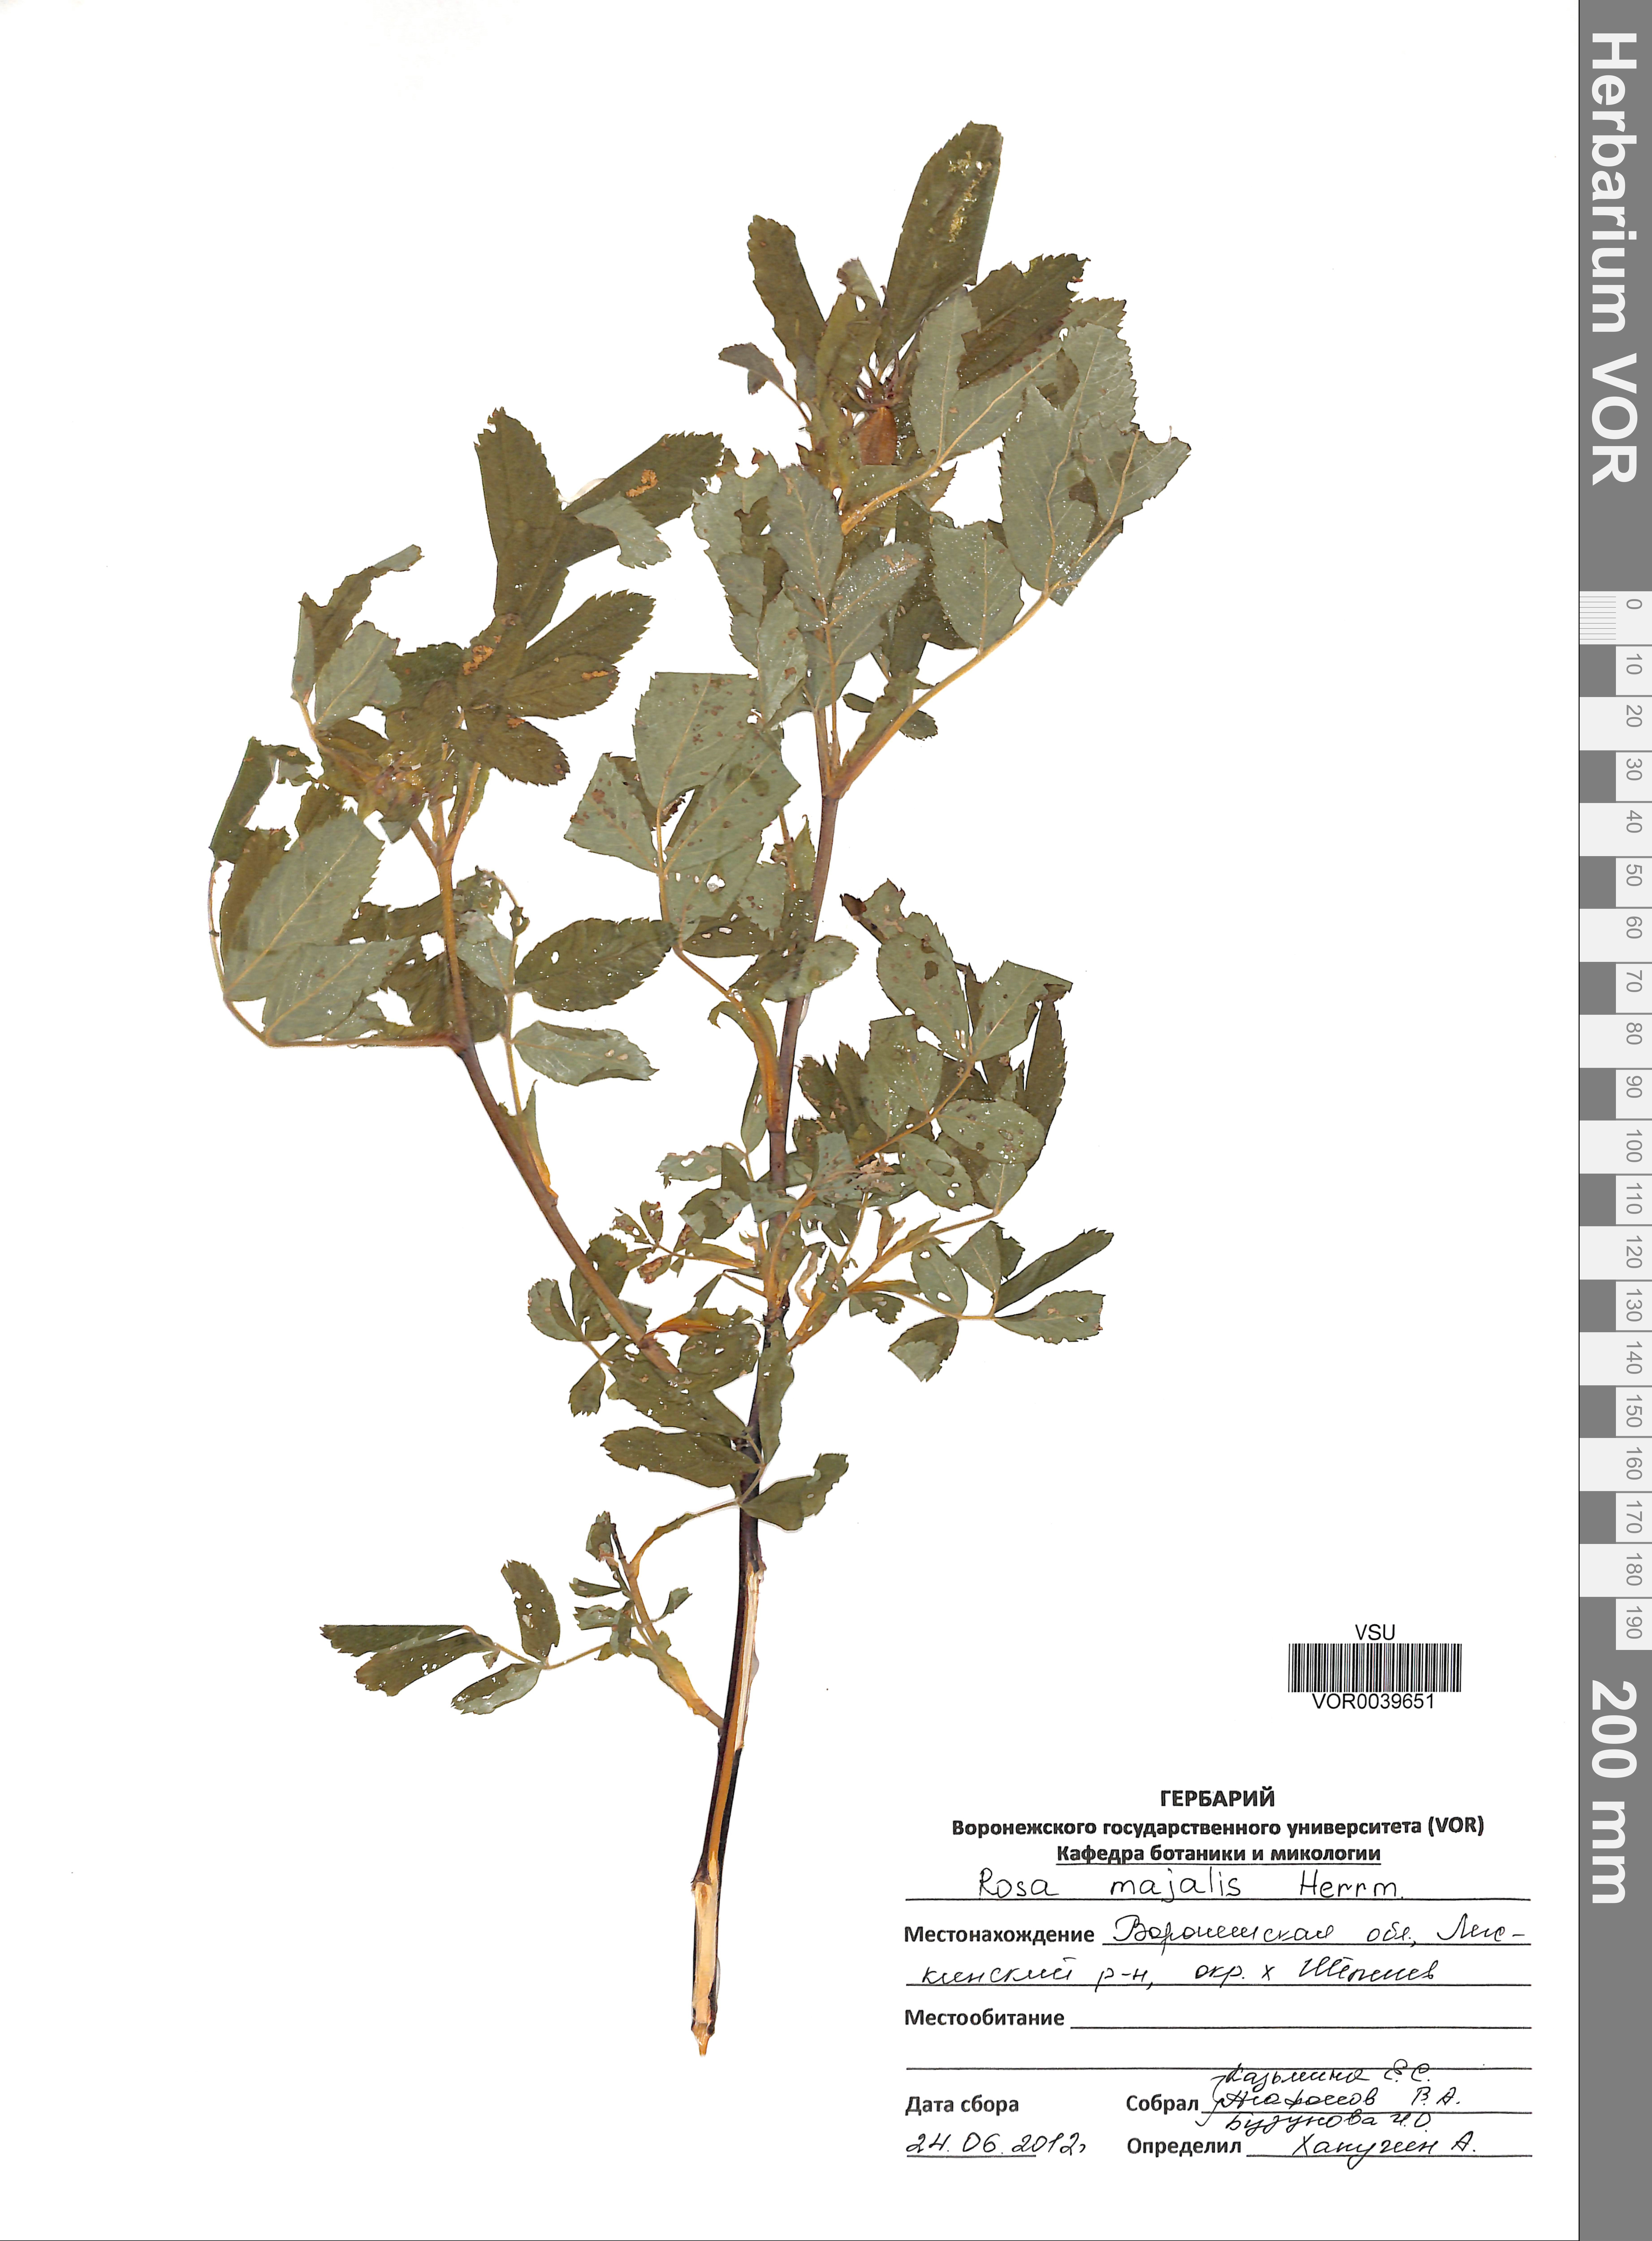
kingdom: Plantae
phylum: Tracheophyta
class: Magnoliopsida
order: Rosales
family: Rosaceae
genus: Rosa
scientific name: Rosa majalis
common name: Cinnamon rose
